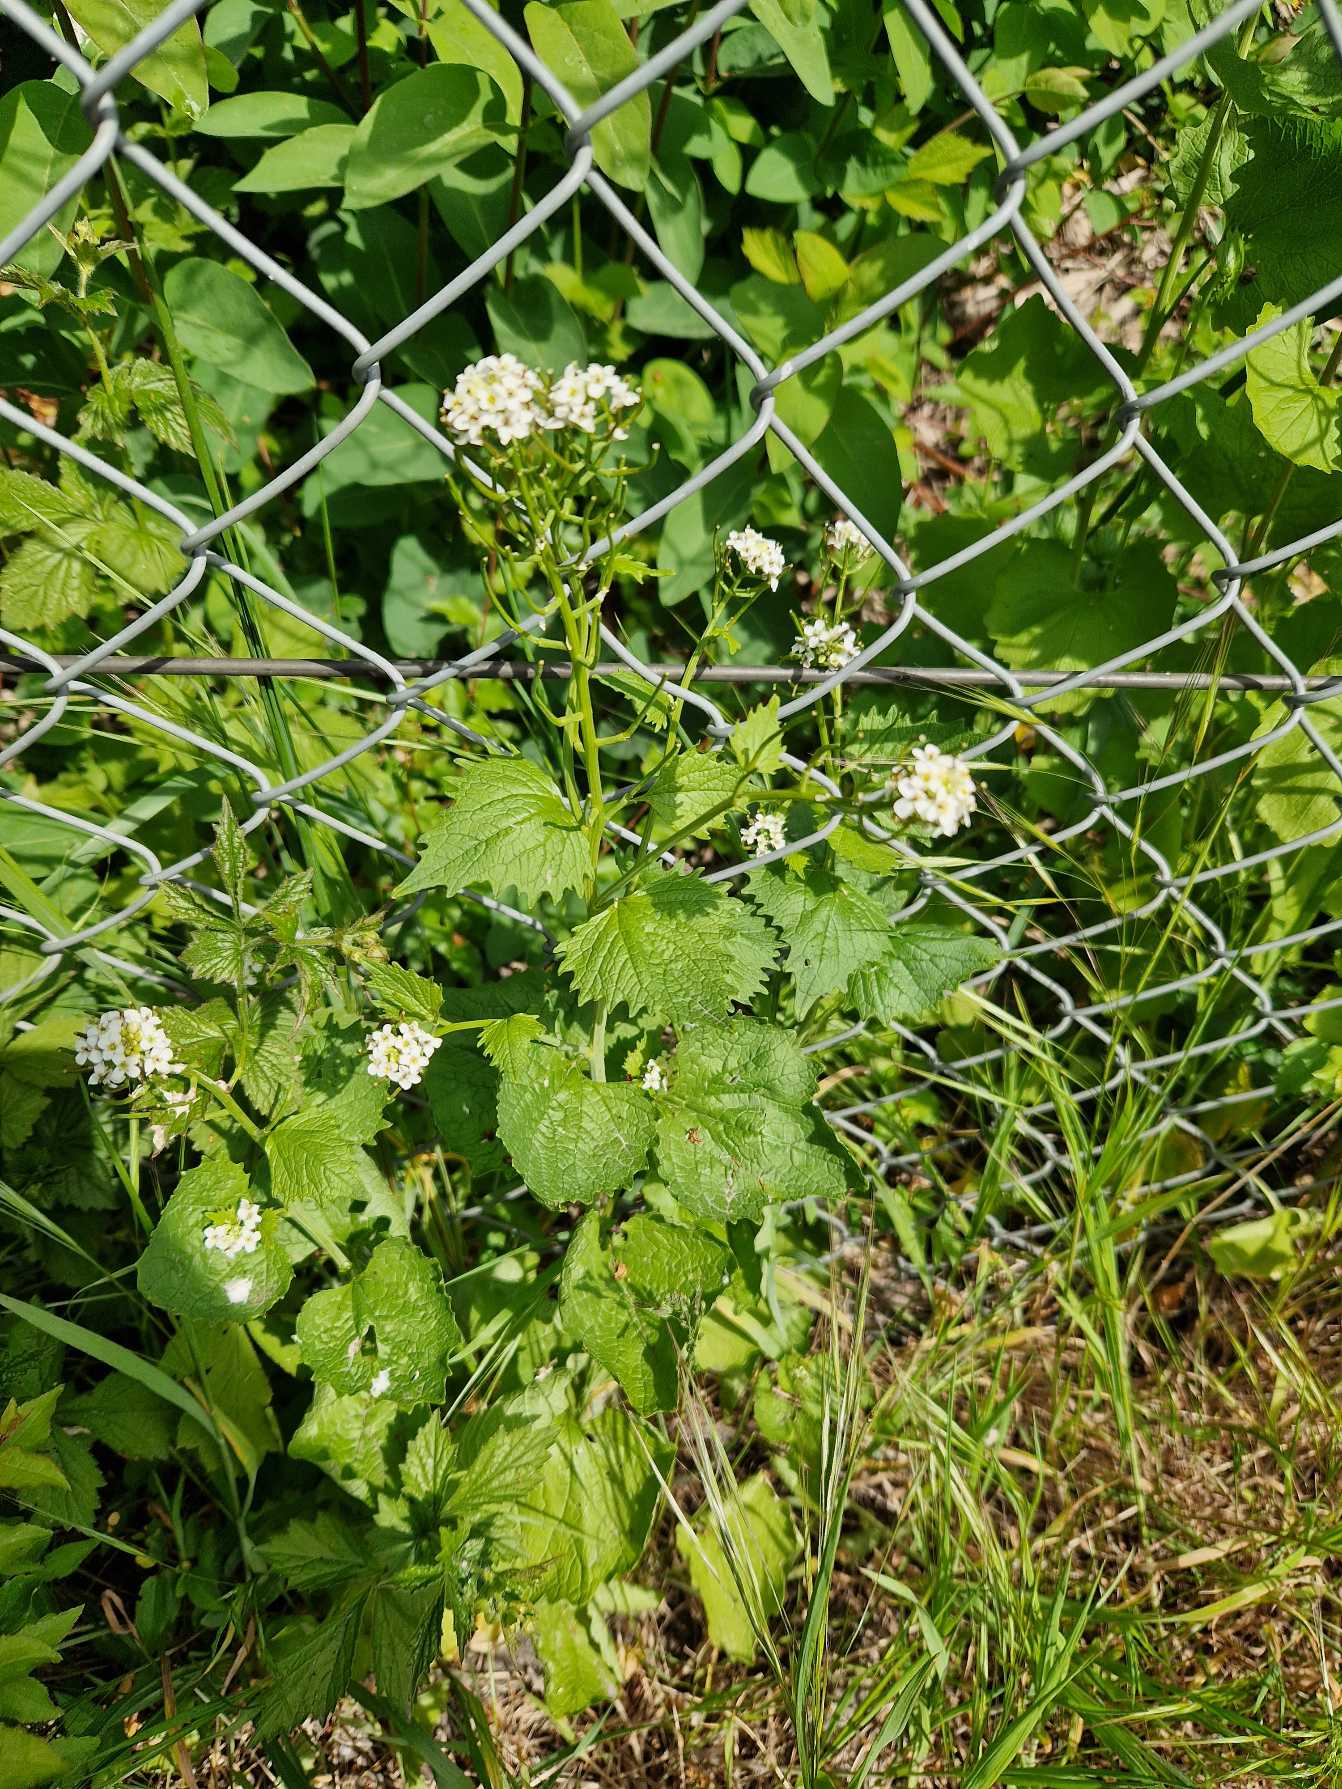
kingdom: Plantae
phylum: Tracheophyta
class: Magnoliopsida
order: Brassicales
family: Brassicaceae
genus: Alliaria
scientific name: Alliaria petiolata
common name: Løgkarse
